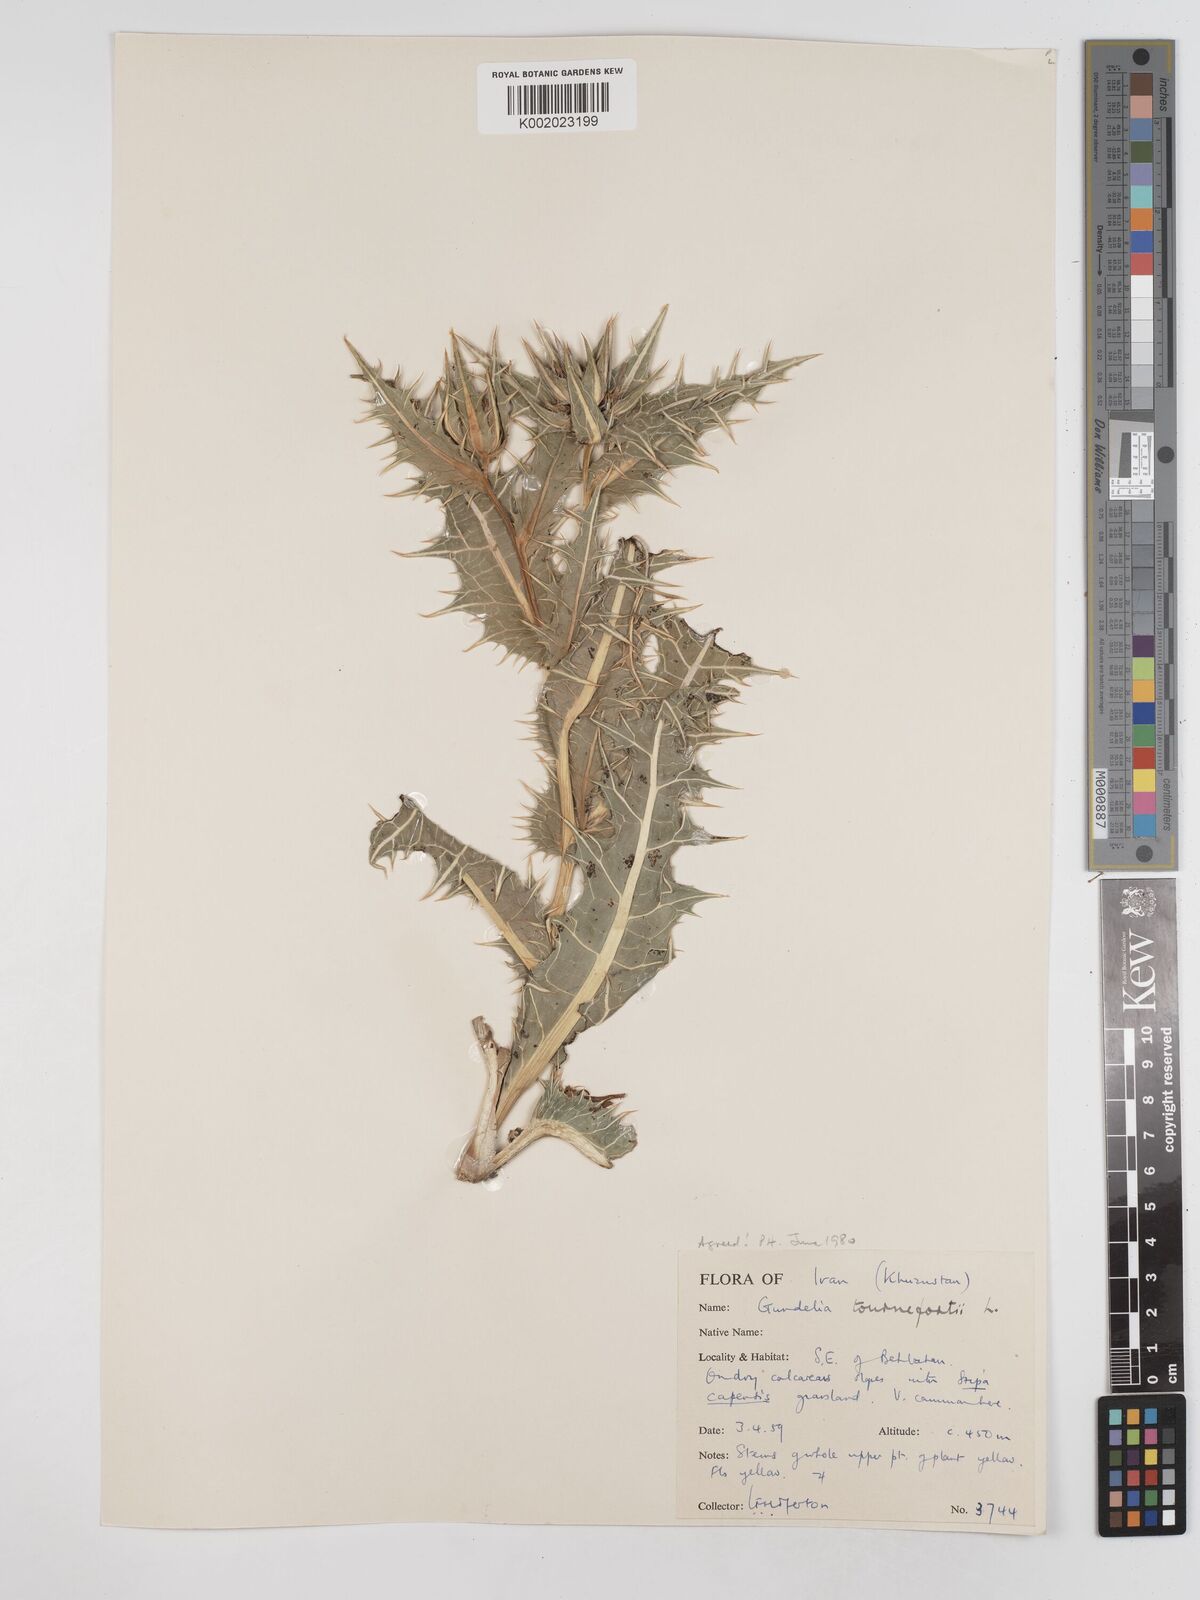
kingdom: Plantae
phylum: Tracheophyta
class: Magnoliopsida
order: Asterales
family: Asteraceae
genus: Gundelia
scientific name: Gundelia tournefortii
